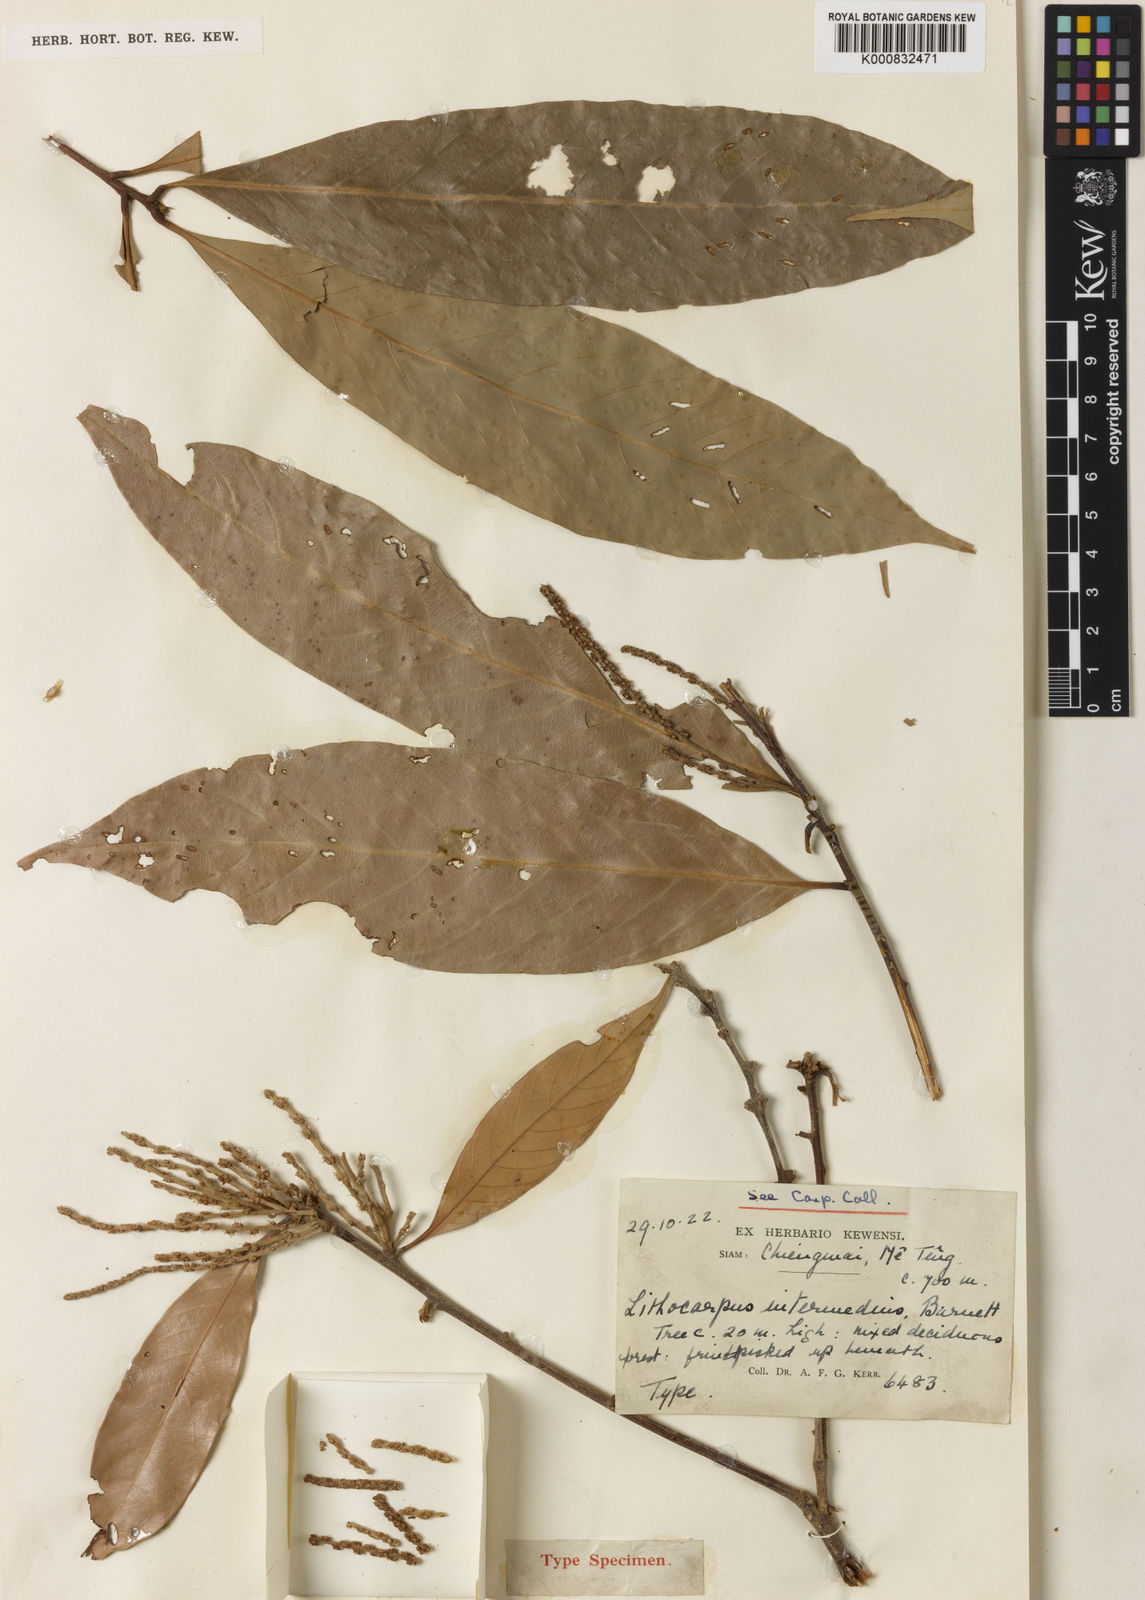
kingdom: Plantae
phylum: Tracheophyta
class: Magnoliopsida
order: Fagales
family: Fagaceae
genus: Lithocarpus
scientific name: Lithocarpus elegans
